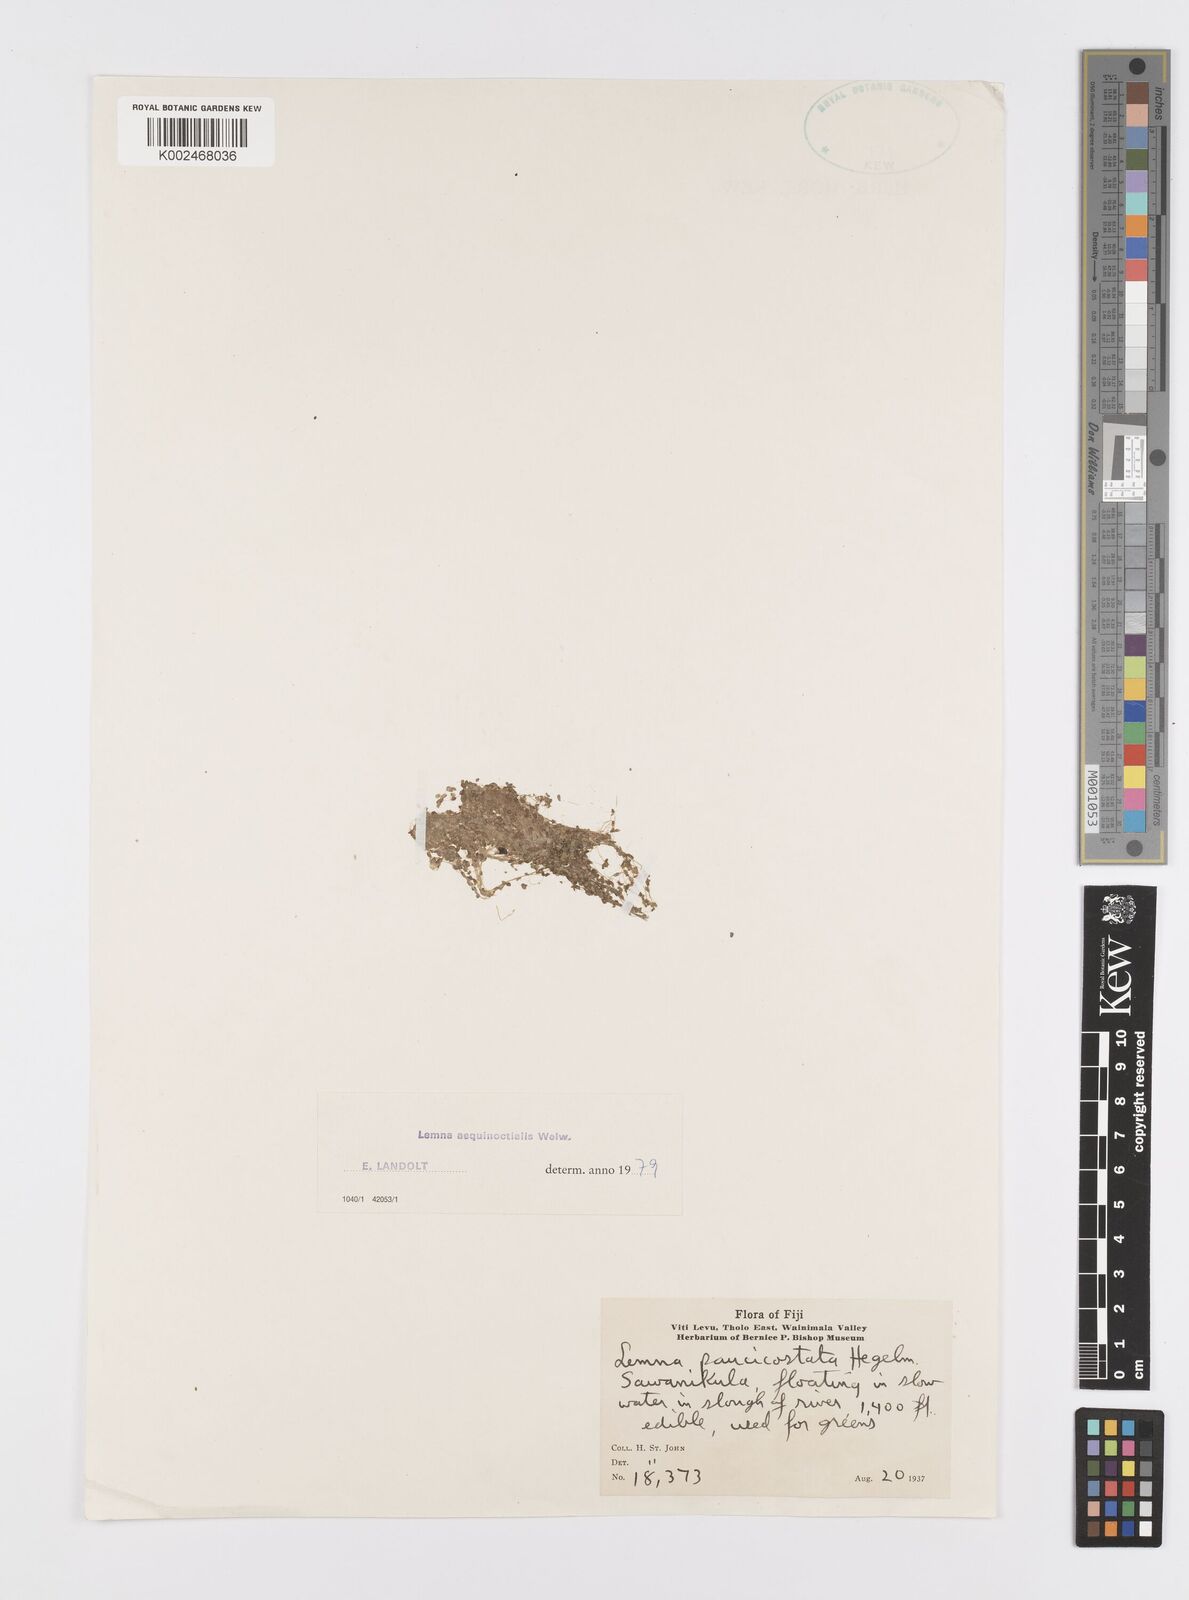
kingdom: Plantae
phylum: Tracheophyta
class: Liliopsida
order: Alismatales
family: Araceae
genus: Lemna
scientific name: Lemna aequinoctialis
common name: Duckweed
